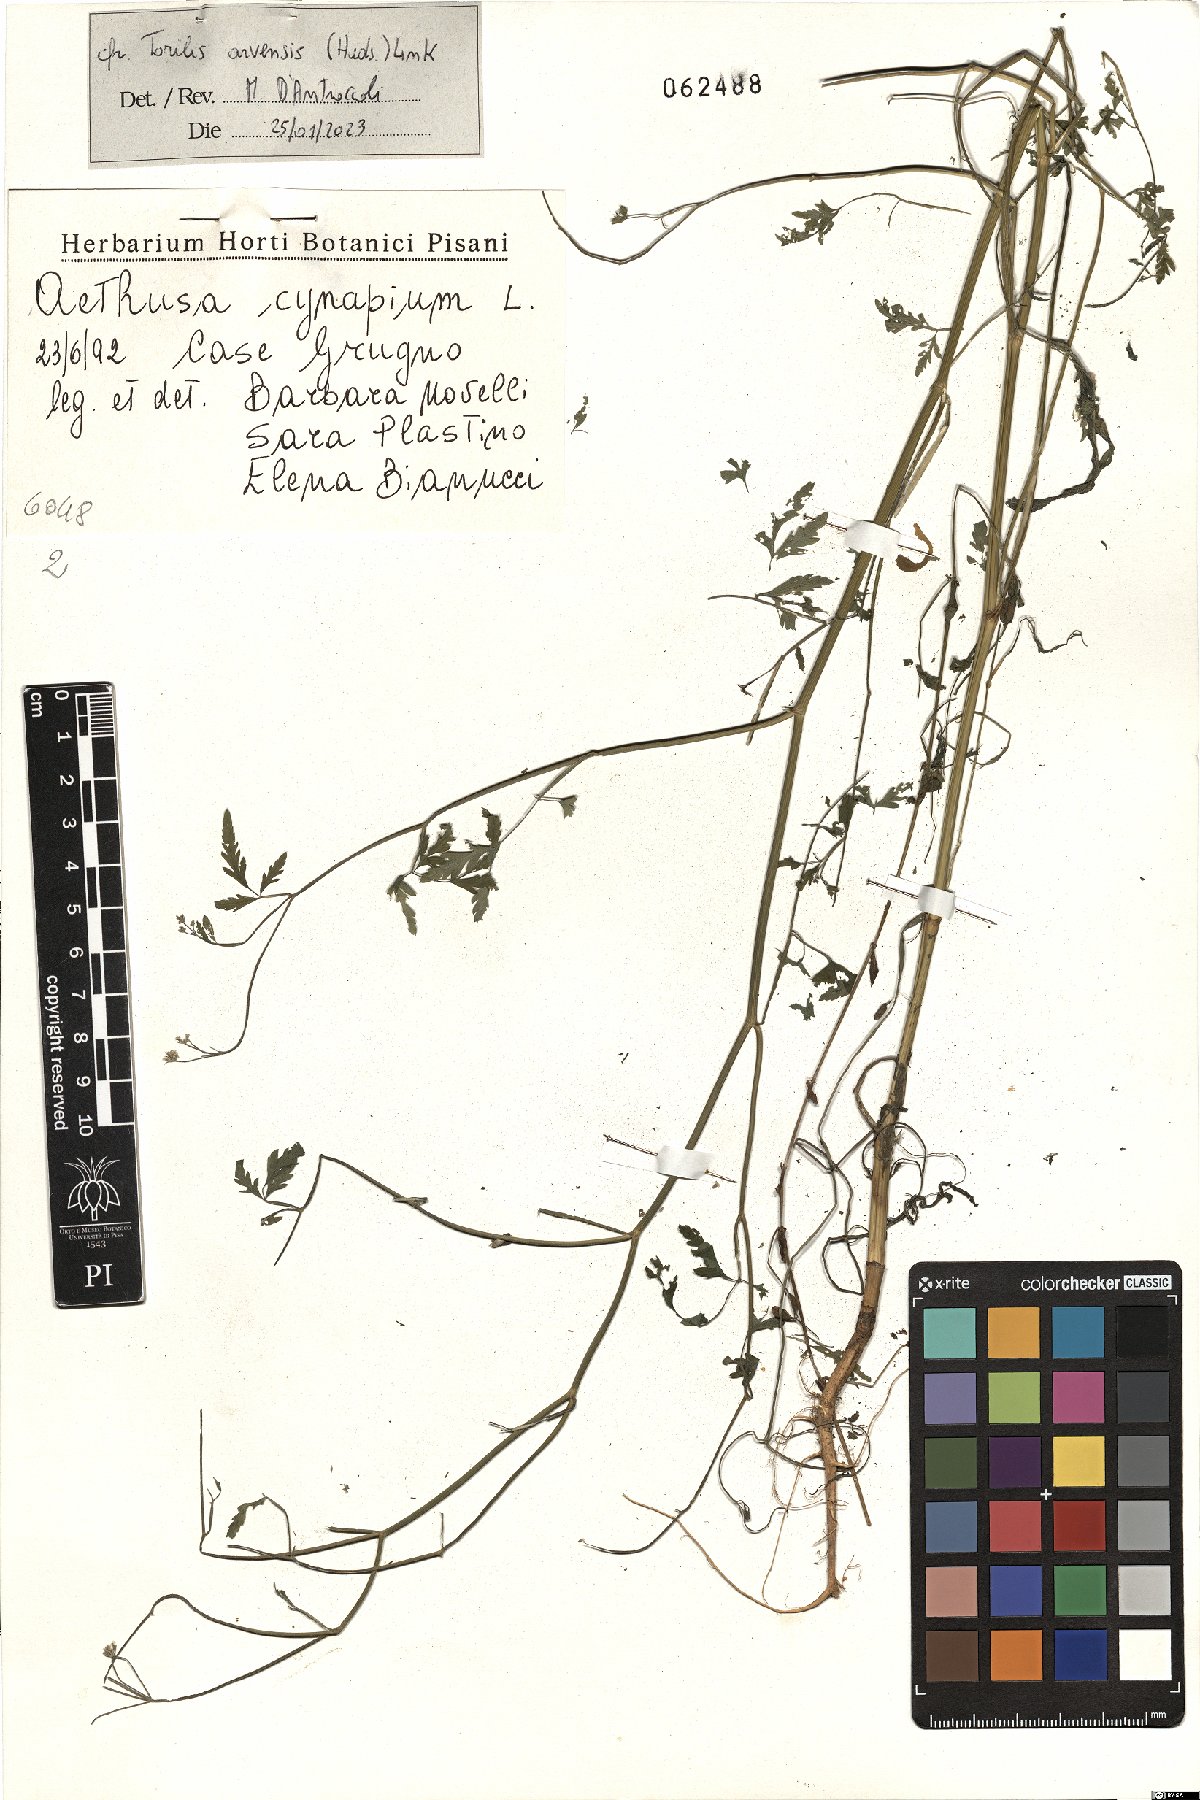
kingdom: Plantae
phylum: Tracheophyta
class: Magnoliopsida
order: Apiales
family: Apiaceae
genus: Torilis
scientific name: Torilis arvensis
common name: Spreading hedge-parsley
